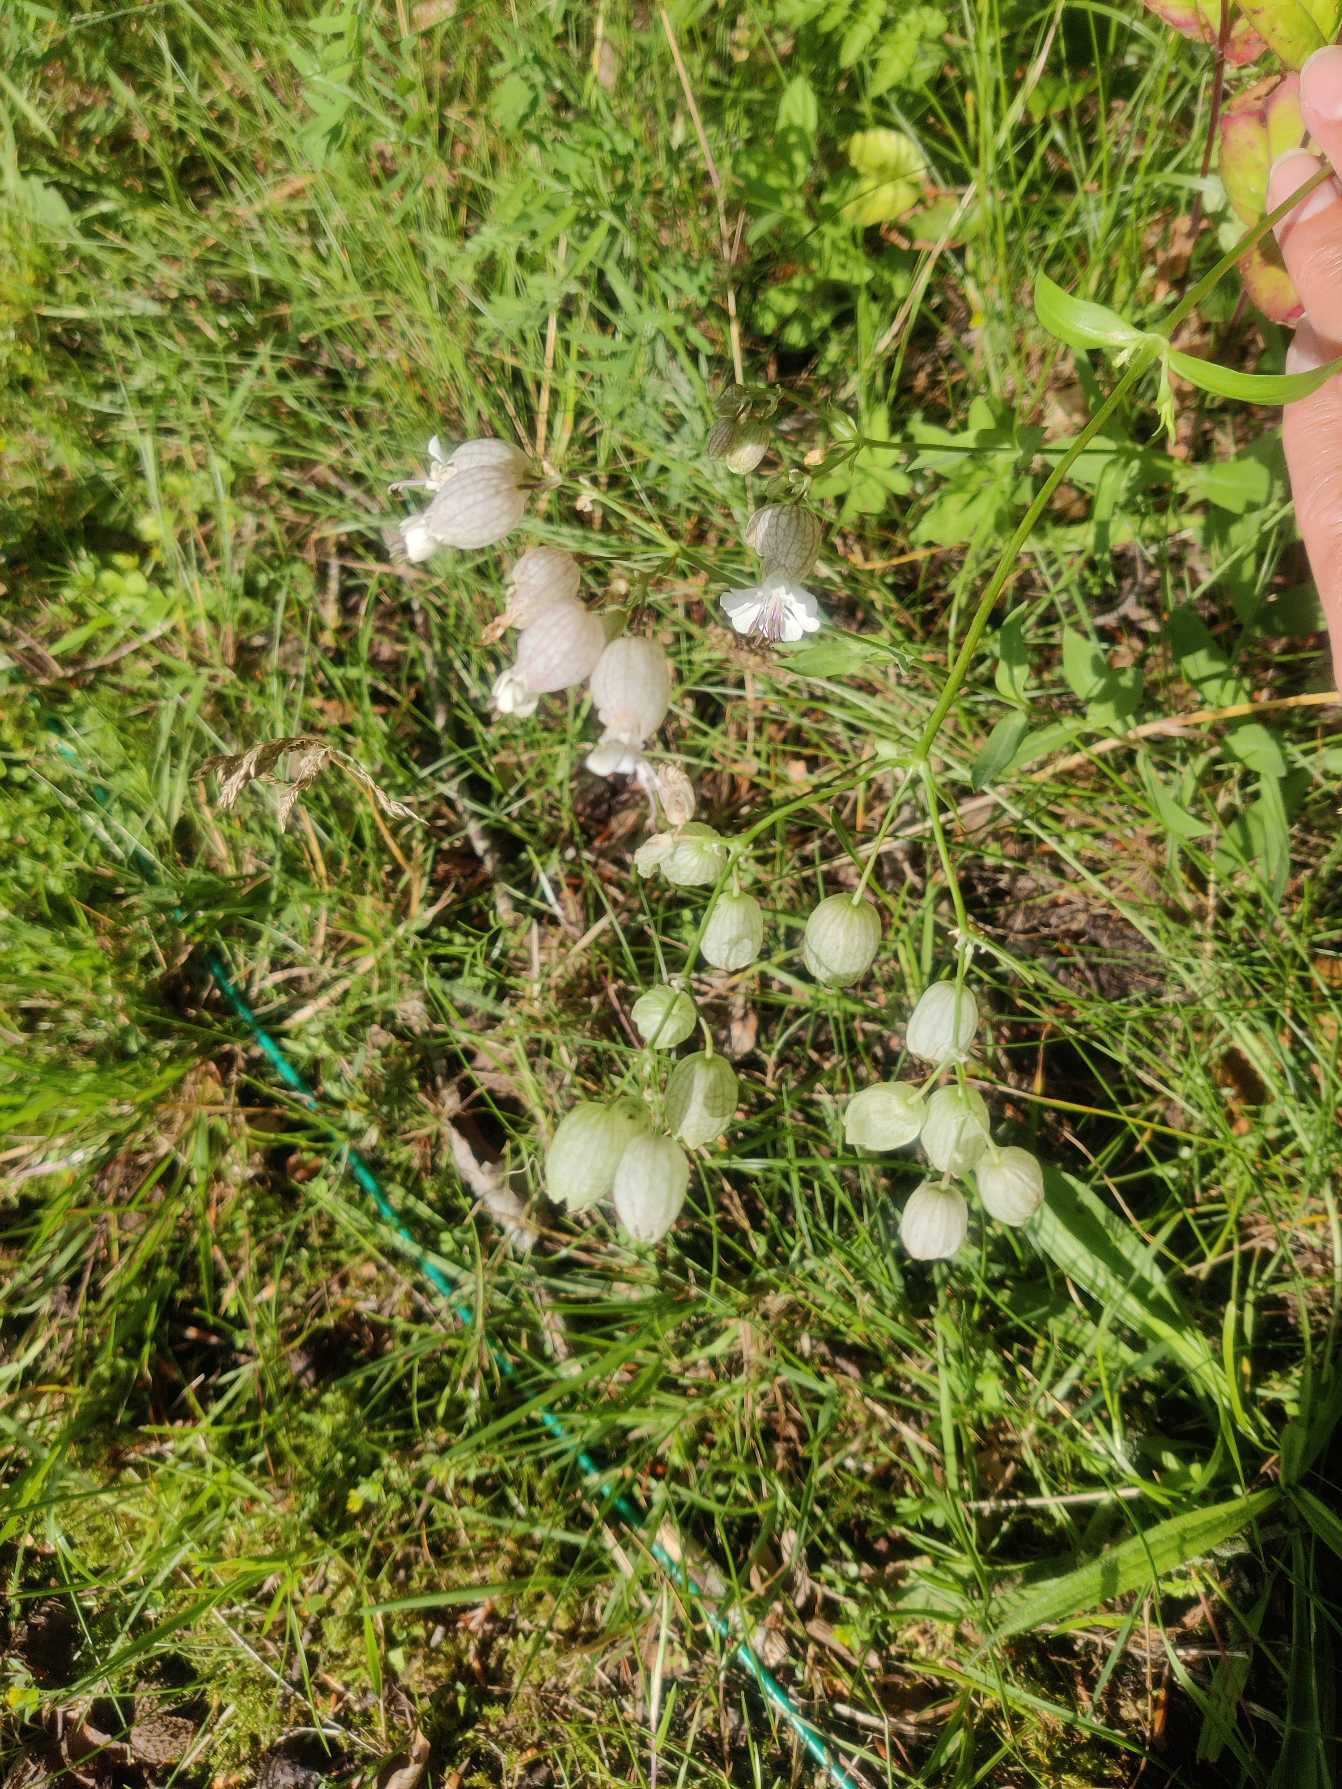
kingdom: Plantae
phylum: Tracheophyta
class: Magnoliopsida
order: Caryophyllales
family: Caryophyllaceae
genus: Silene
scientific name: Silene vulgaris
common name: Blæresmælde
